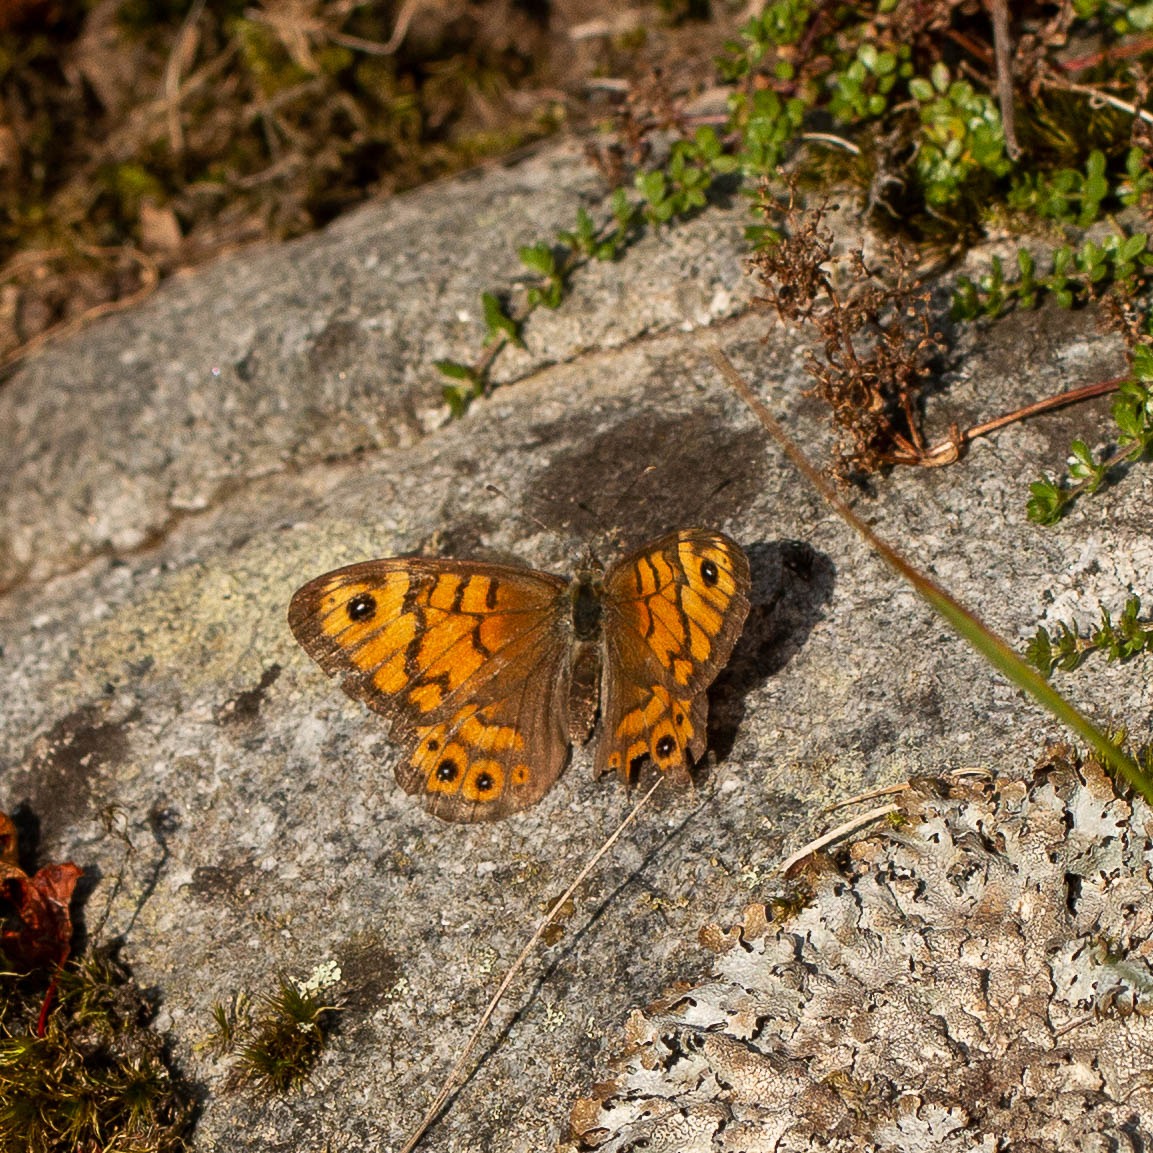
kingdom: Animalia
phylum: Arthropoda
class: Insecta
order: Lepidoptera
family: Nymphalidae
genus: Pararge
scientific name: Pararge Lasiommata megera
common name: Vejrandøje
